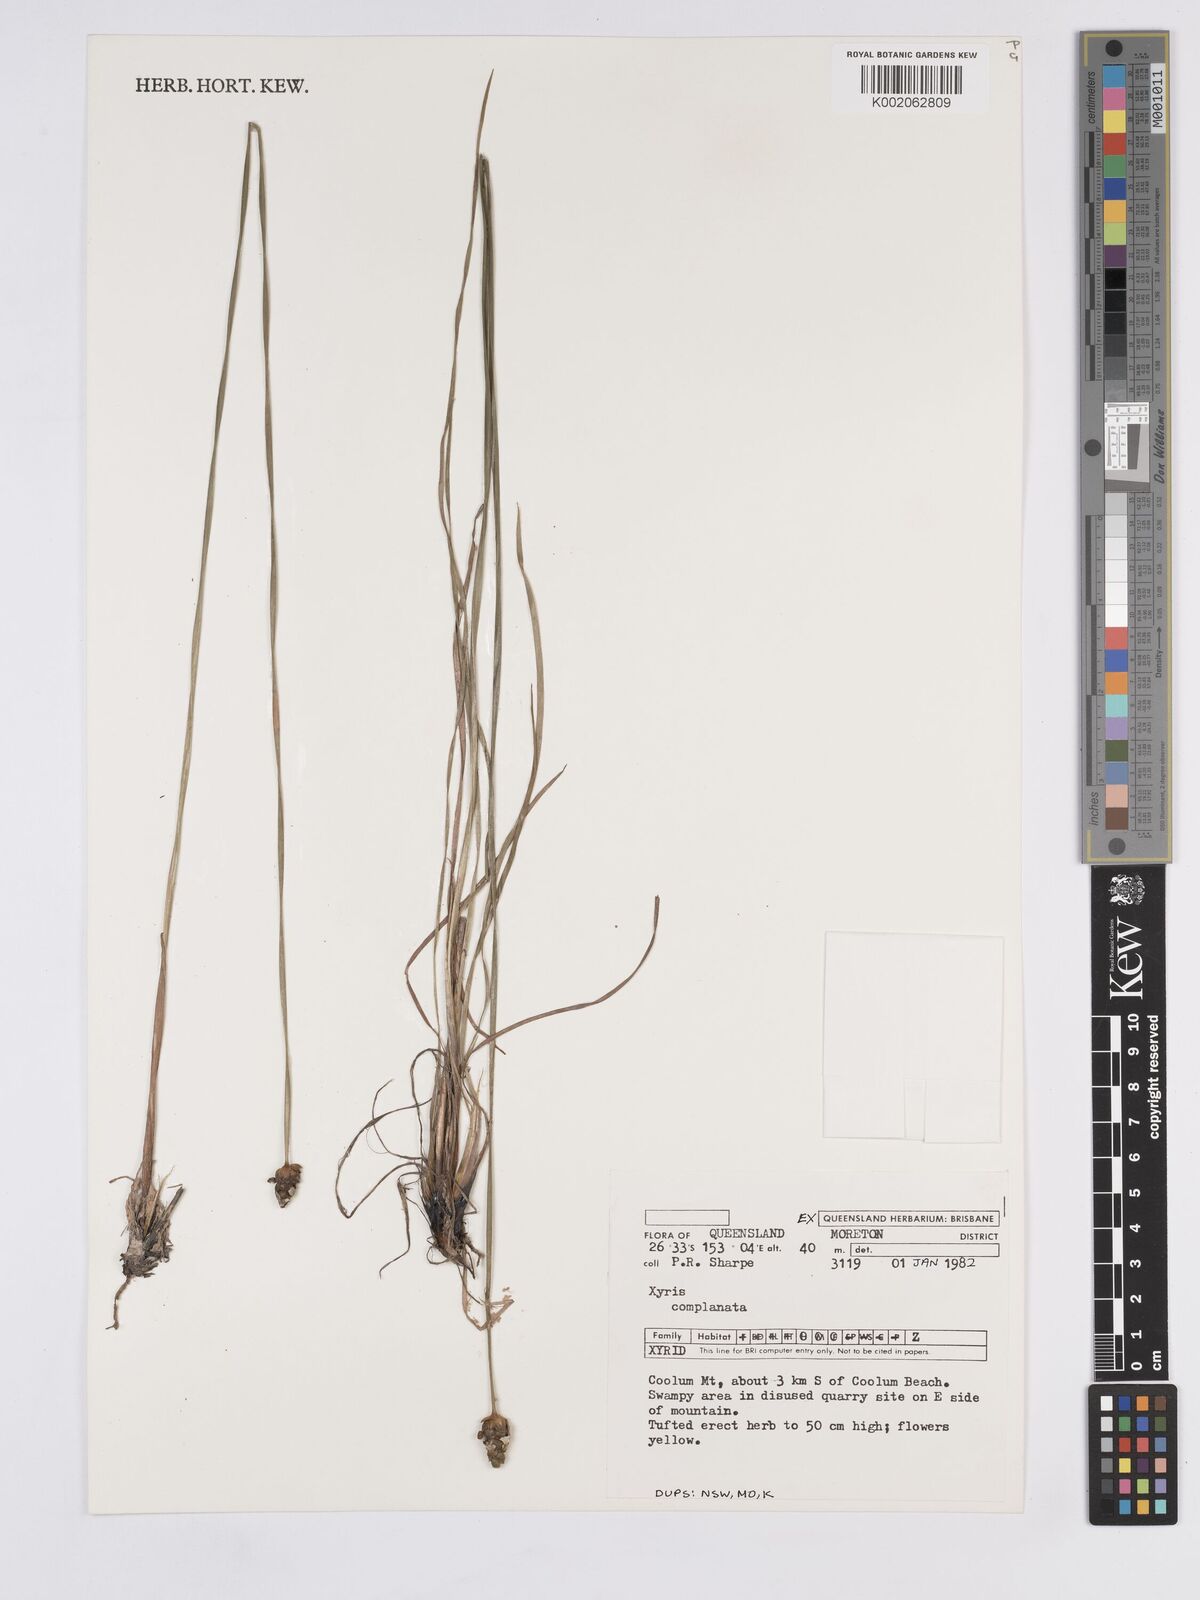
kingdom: Plantae
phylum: Tracheophyta
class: Liliopsida
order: Poales
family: Xyridaceae
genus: Xyris
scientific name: Xyris complanata
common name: Hawai'i yelloweyed grass
